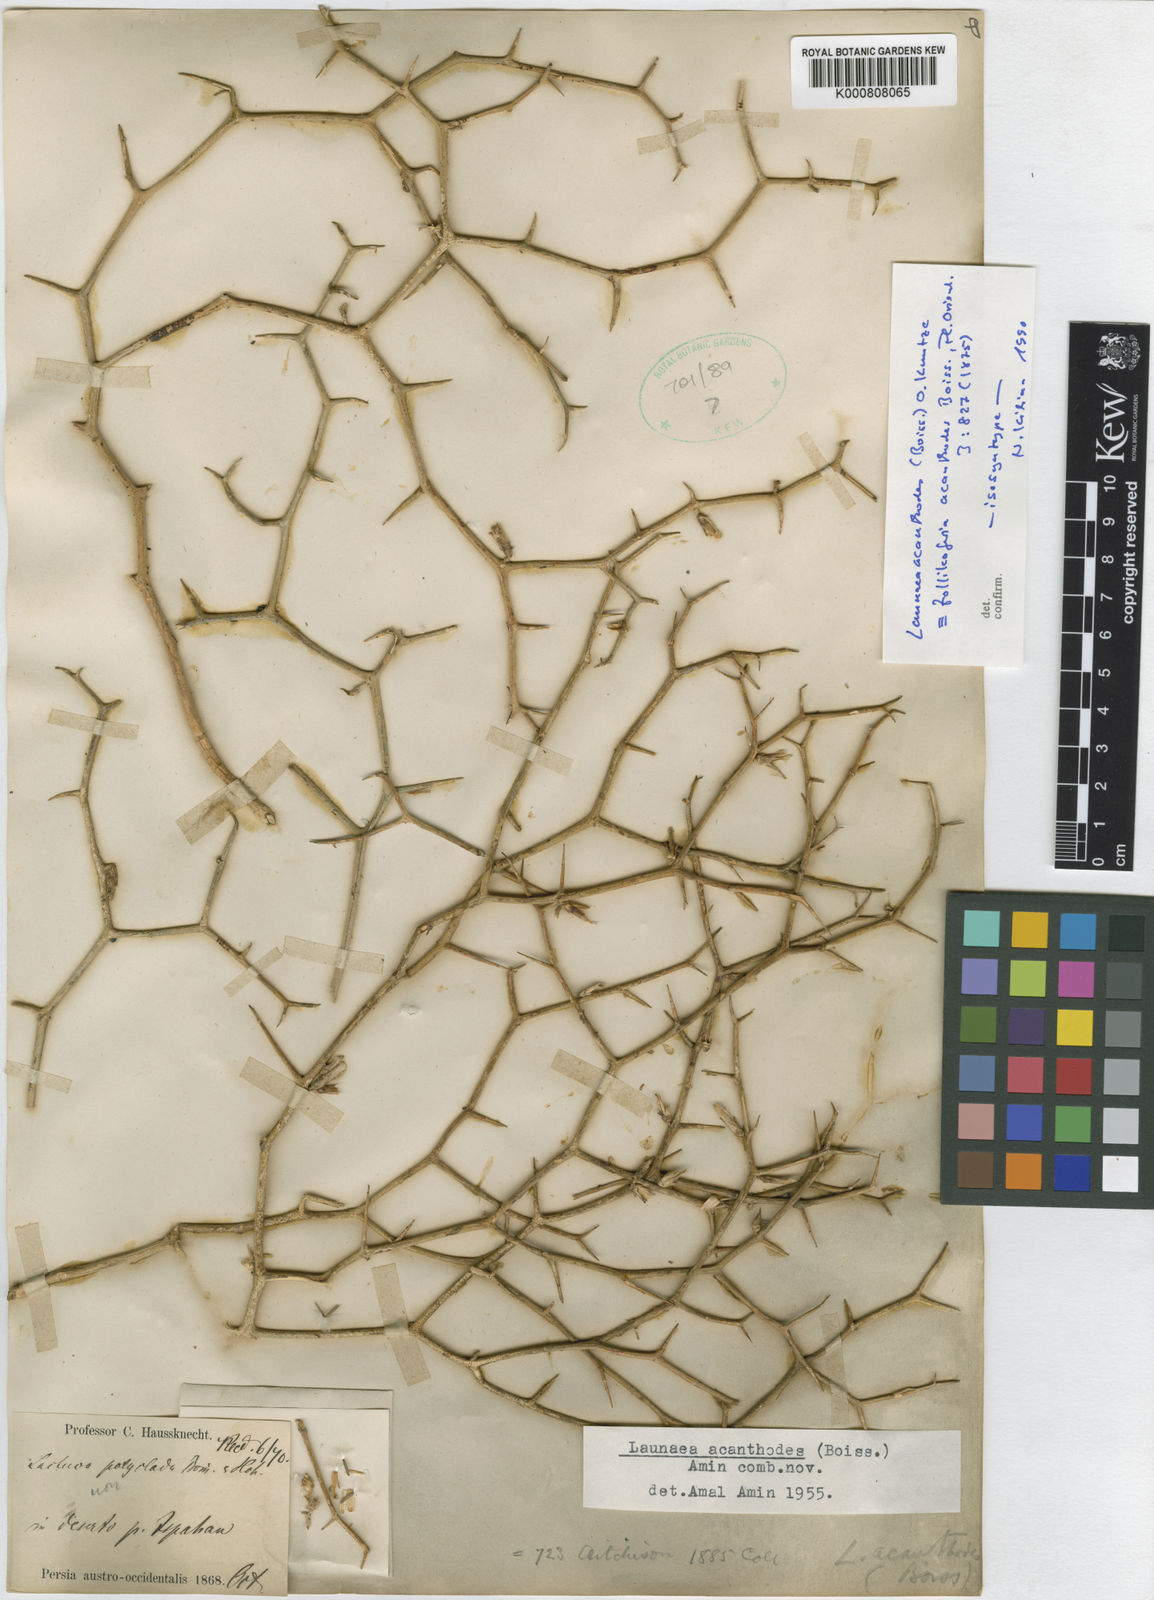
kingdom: Plantae
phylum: Tracheophyta
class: Magnoliopsida
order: Asterales
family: Asteraceae
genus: Launaea
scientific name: Launaea
